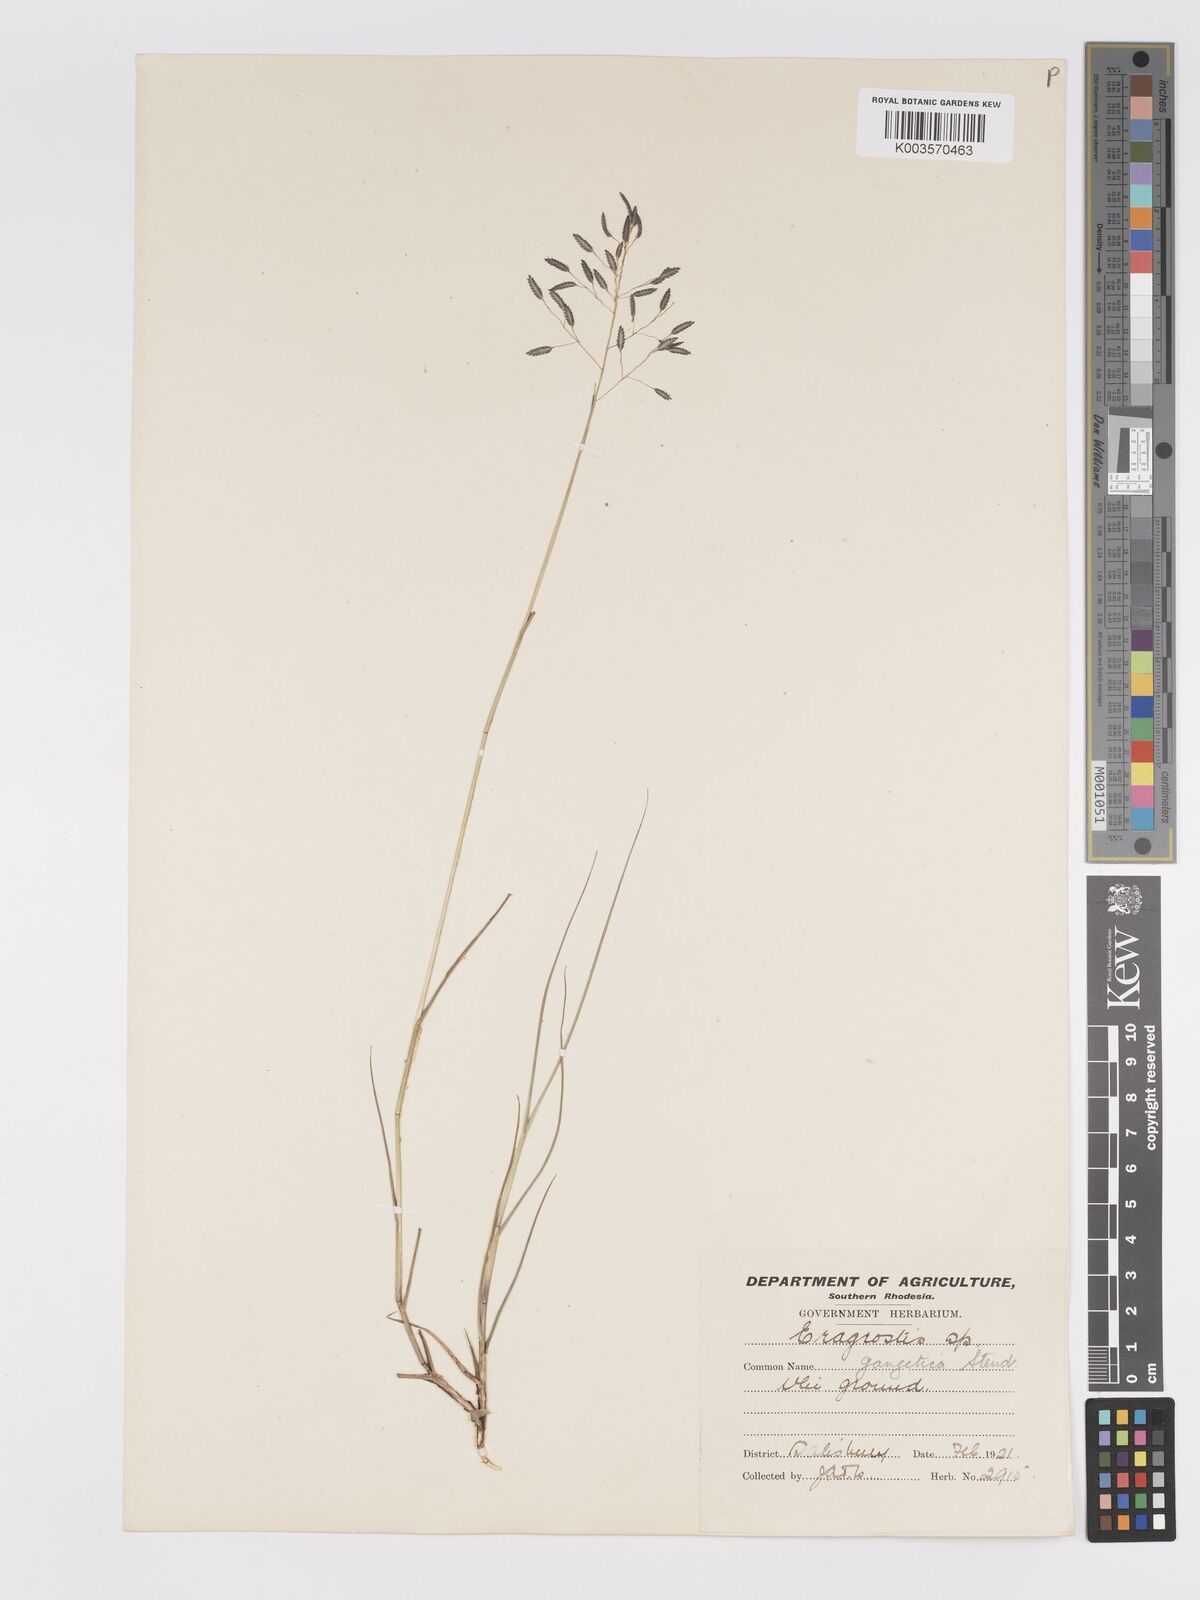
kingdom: Plantae
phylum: Tracheophyta
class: Liliopsida
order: Poales
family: Poaceae
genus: Eragrostis
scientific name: Eragrostis inamoena
